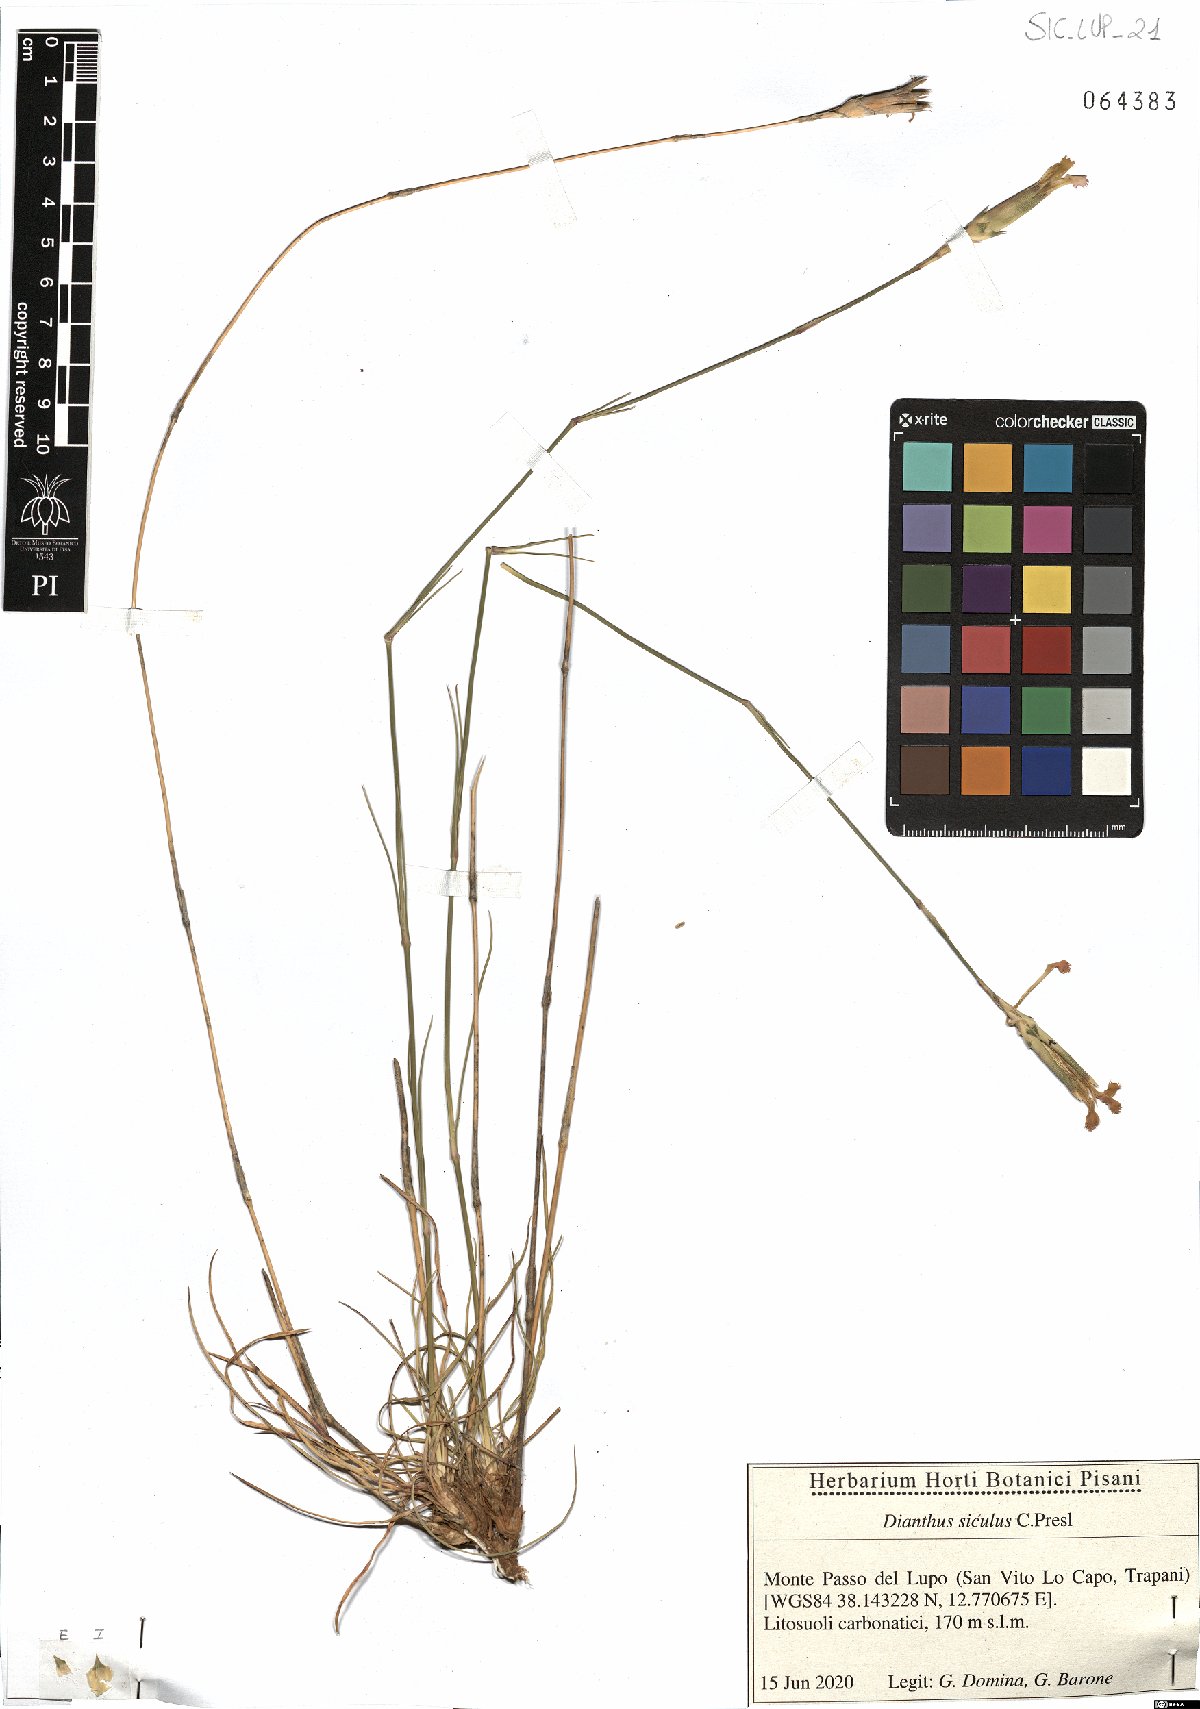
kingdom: Plantae
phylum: Tracheophyta
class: Magnoliopsida
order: Caryophyllales
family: Caryophyllaceae
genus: Dianthus
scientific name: Dianthus siculus
